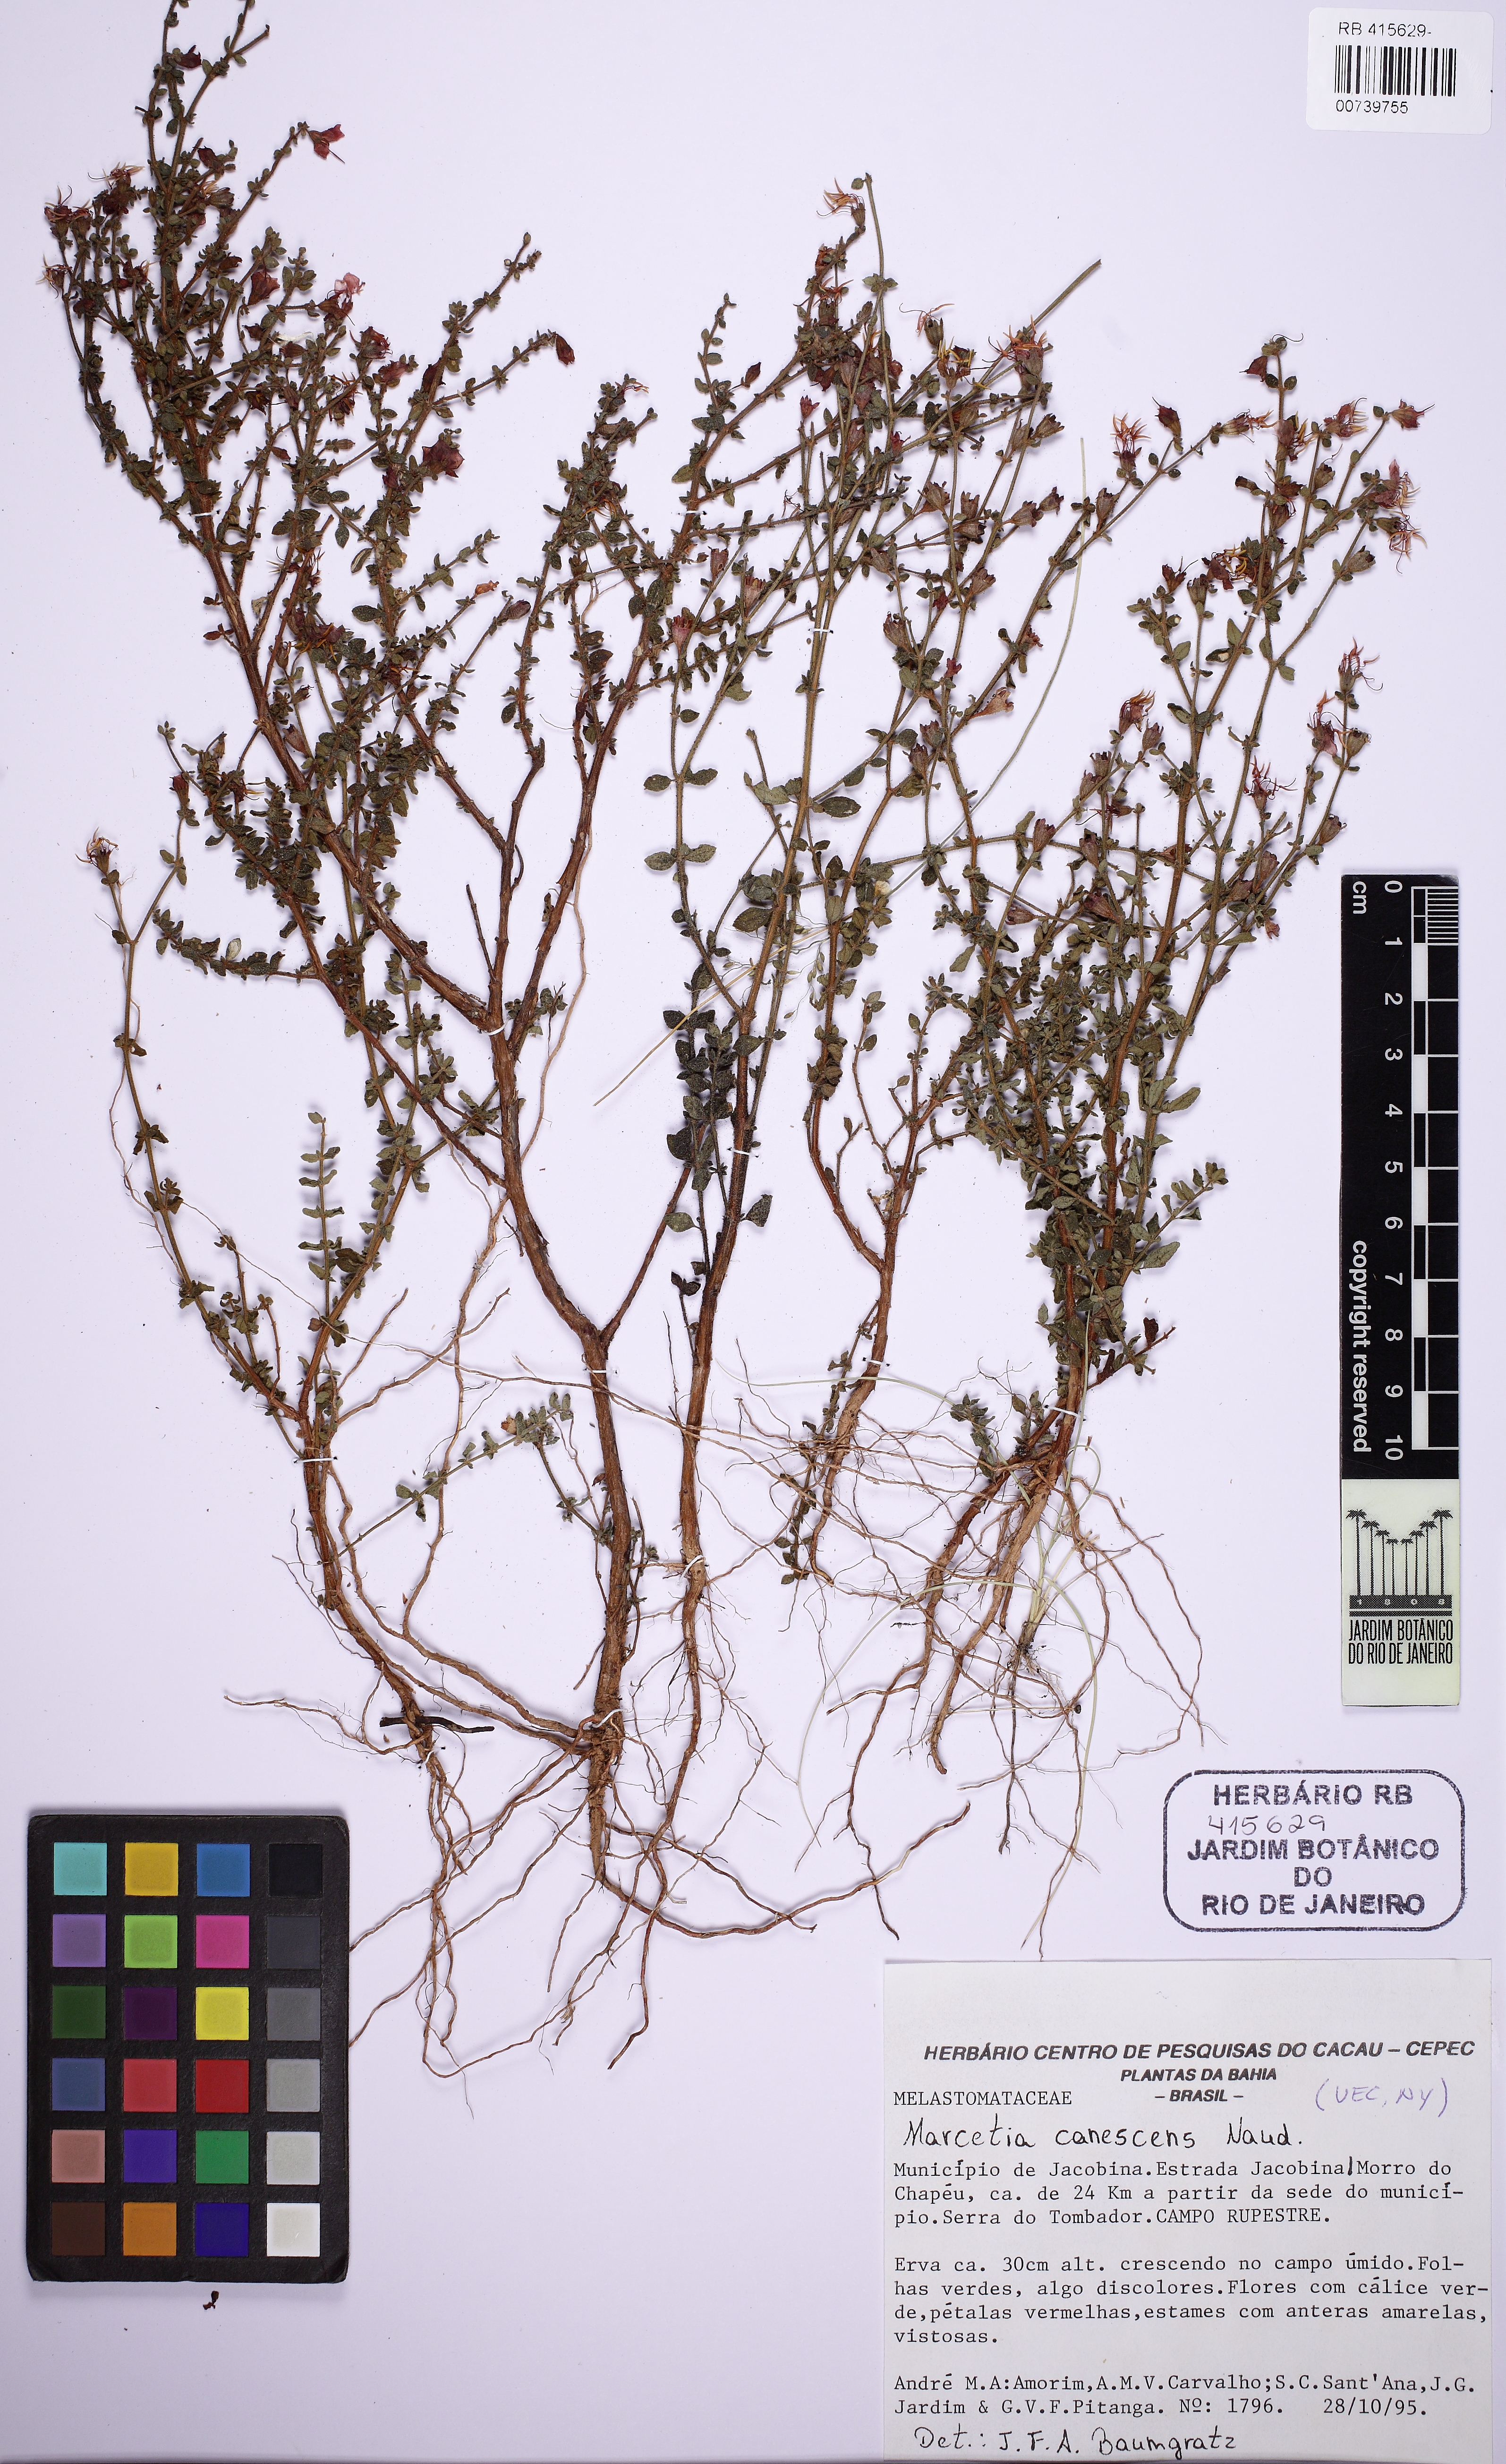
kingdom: Plantae
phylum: Tracheophyta
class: Magnoliopsida
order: Myrtales
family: Melastomataceae
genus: Marcetia
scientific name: Marcetia canescens
